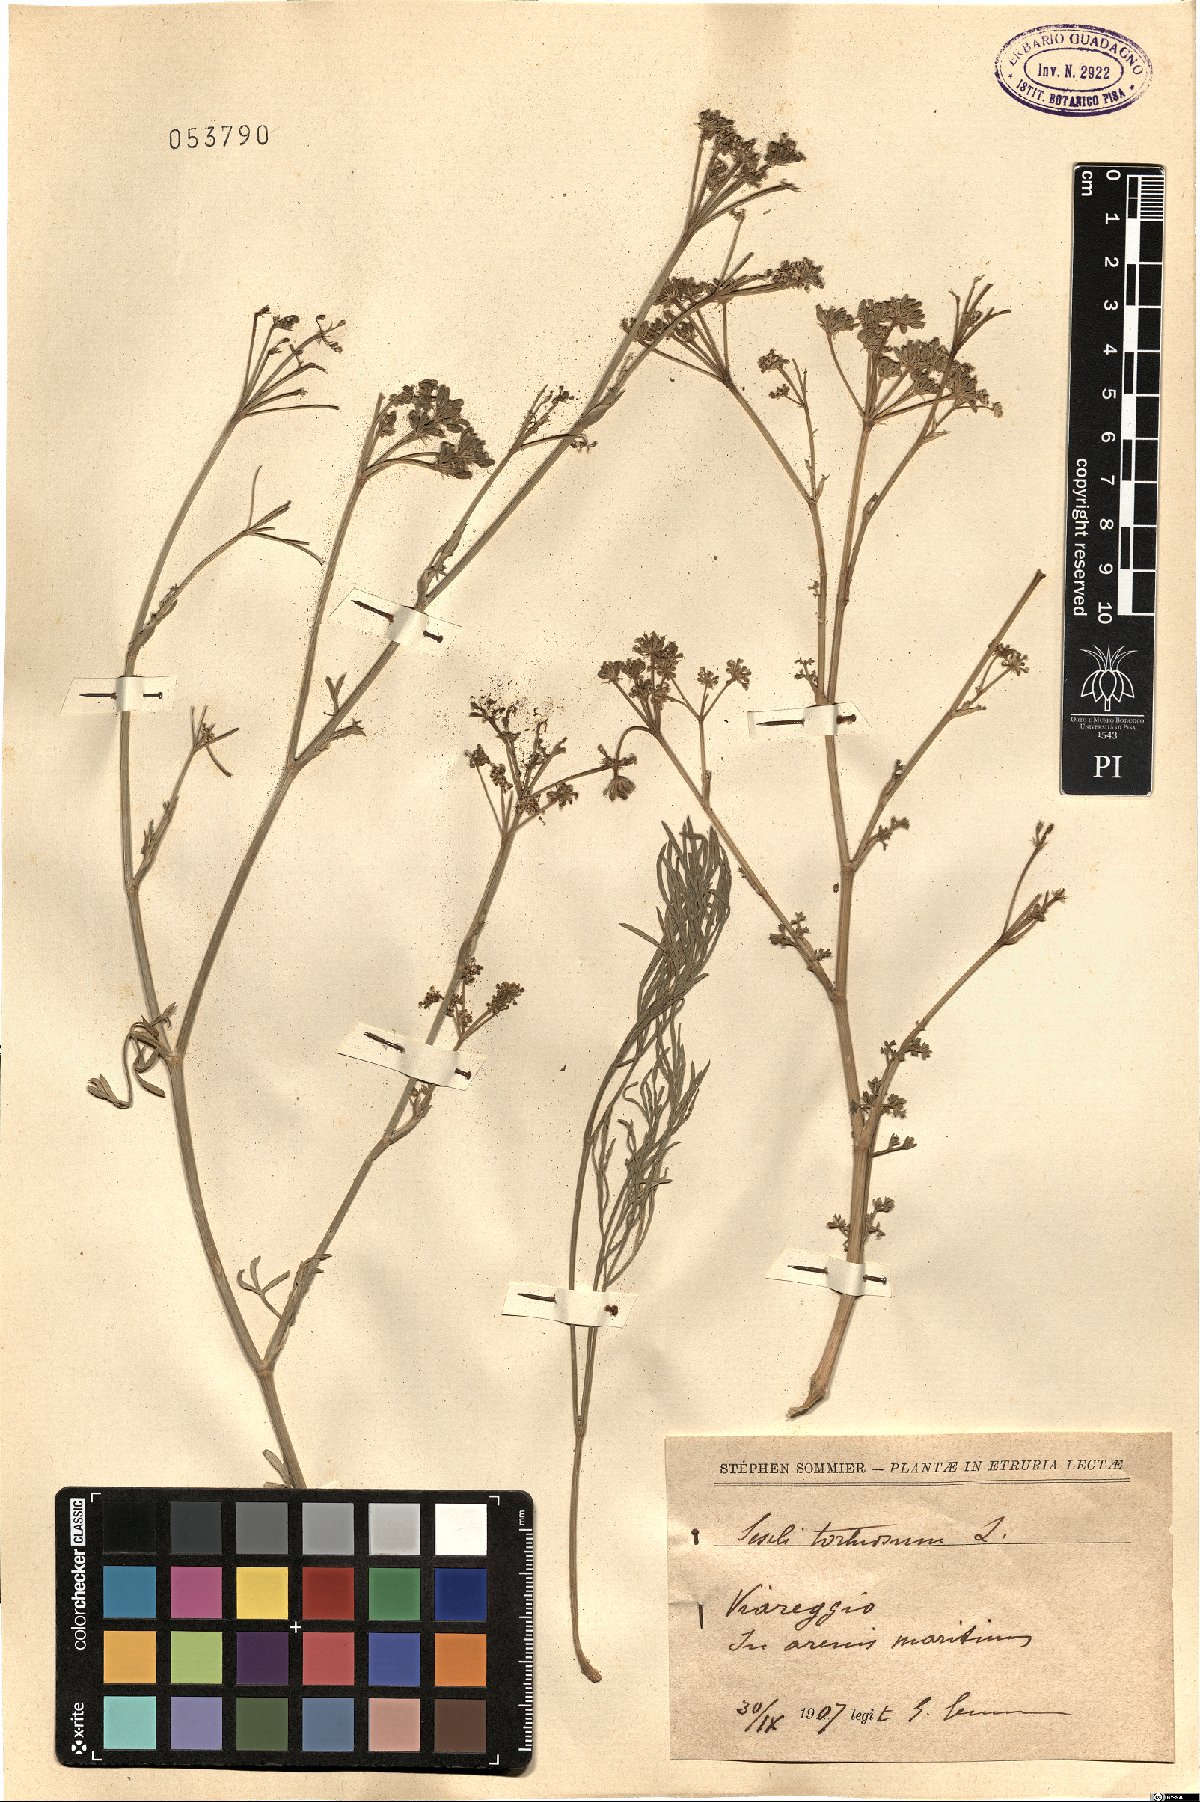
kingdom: Plantae
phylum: Tracheophyta
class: Magnoliopsida
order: Apiales
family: Apiaceae
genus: Seseli
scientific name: Seseli tortuosum
